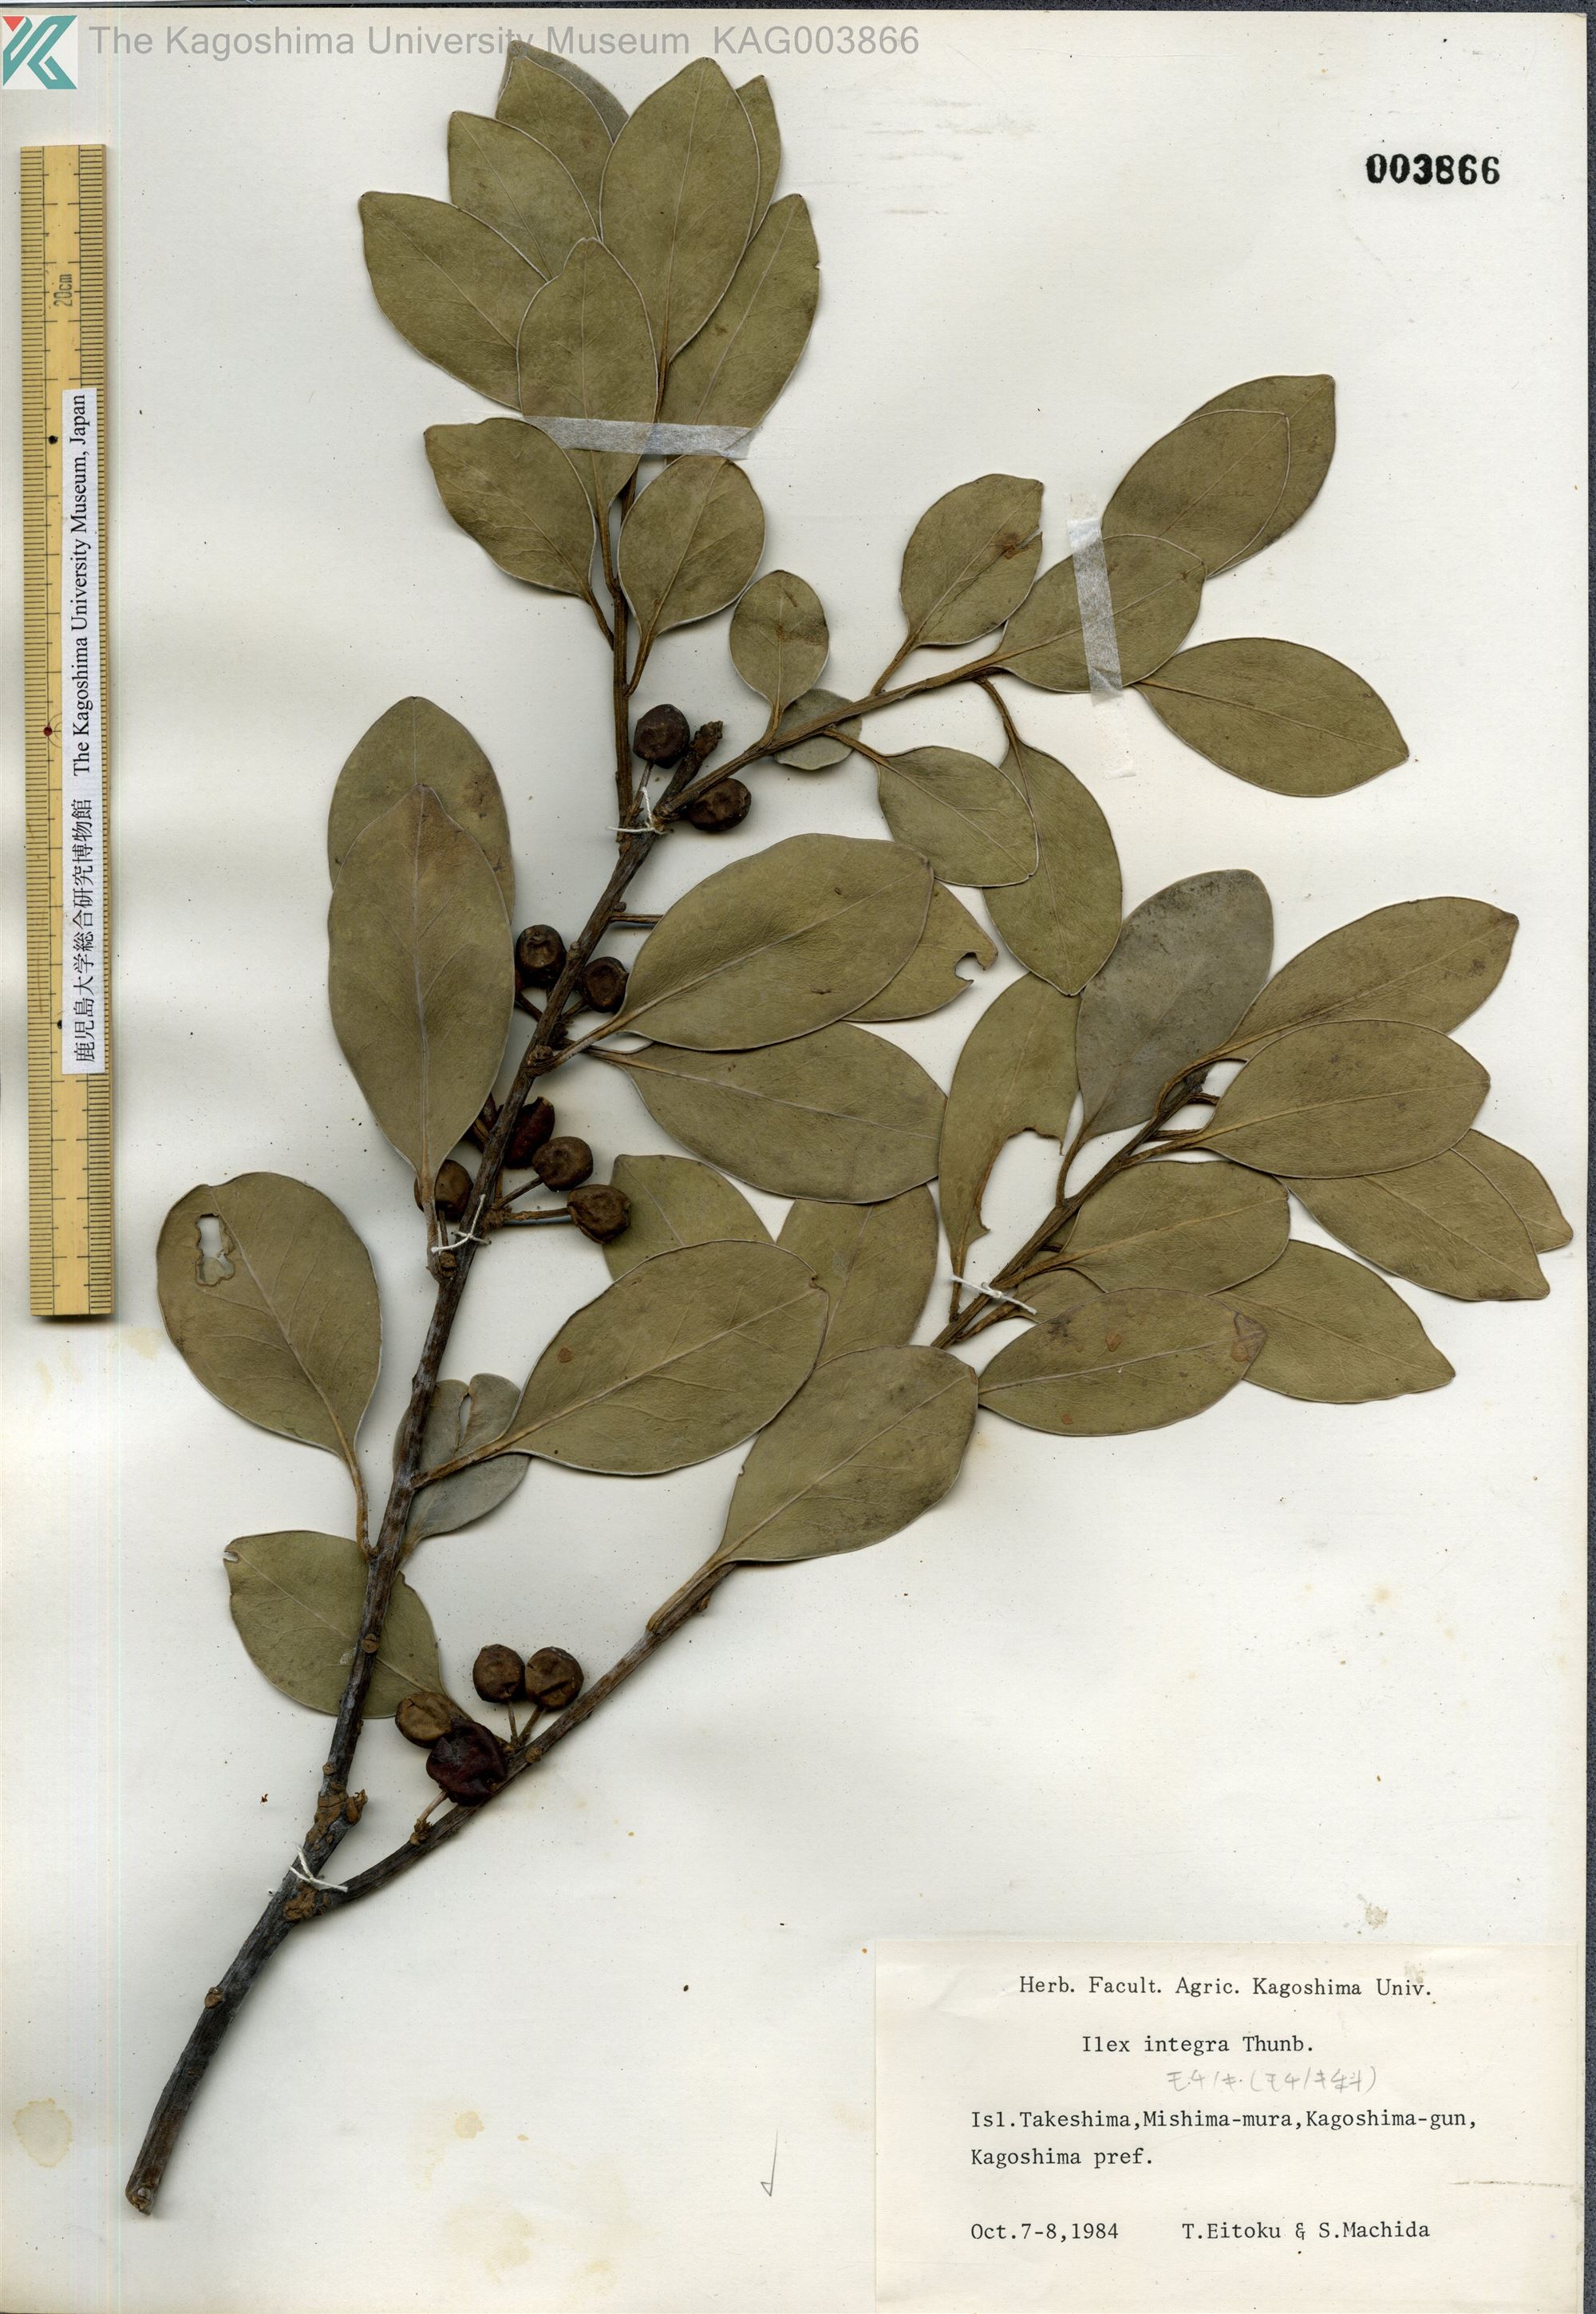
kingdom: Plantae
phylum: Tracheophyta
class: Magnoliopsida
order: Aquifoliales
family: Aquifoliaceae
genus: Ilex
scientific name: Ilex integra
